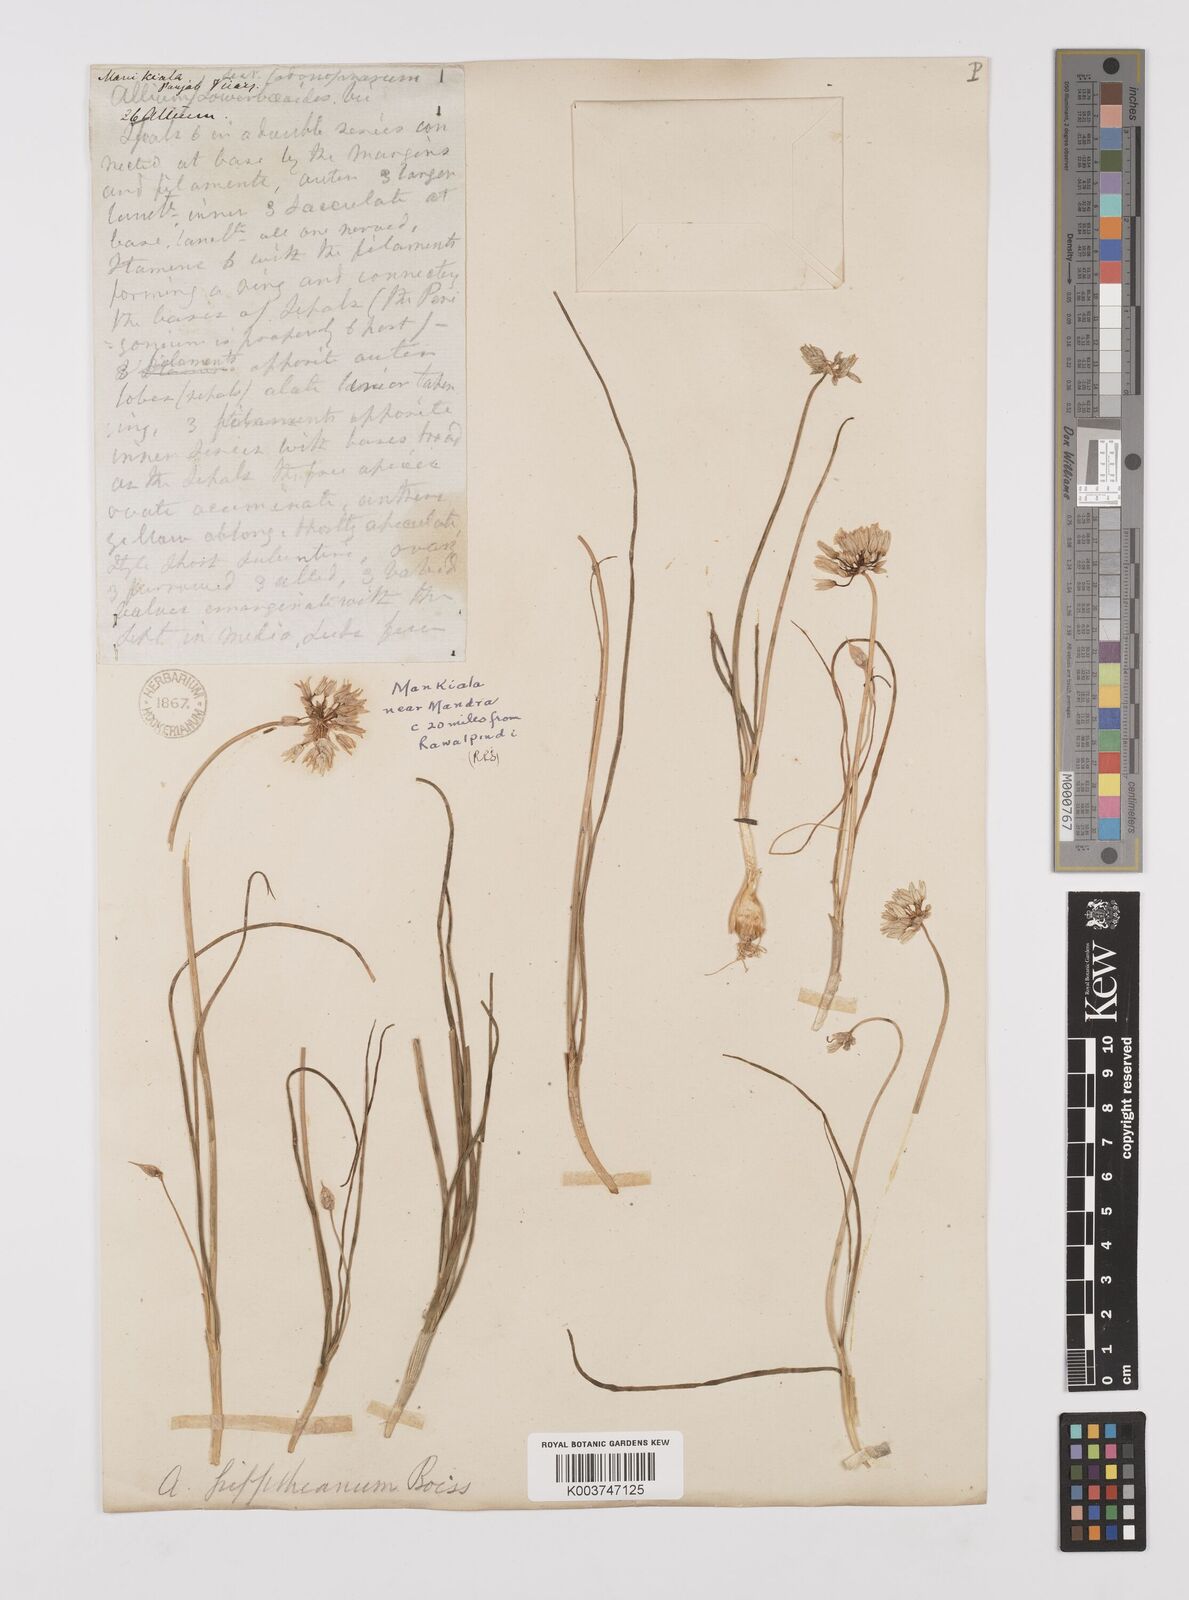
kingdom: Plantae
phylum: Tracheophyta
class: Liliopsida
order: Asparagales
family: Amaryllidaceae
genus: Allium
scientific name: Allium griffithianum
